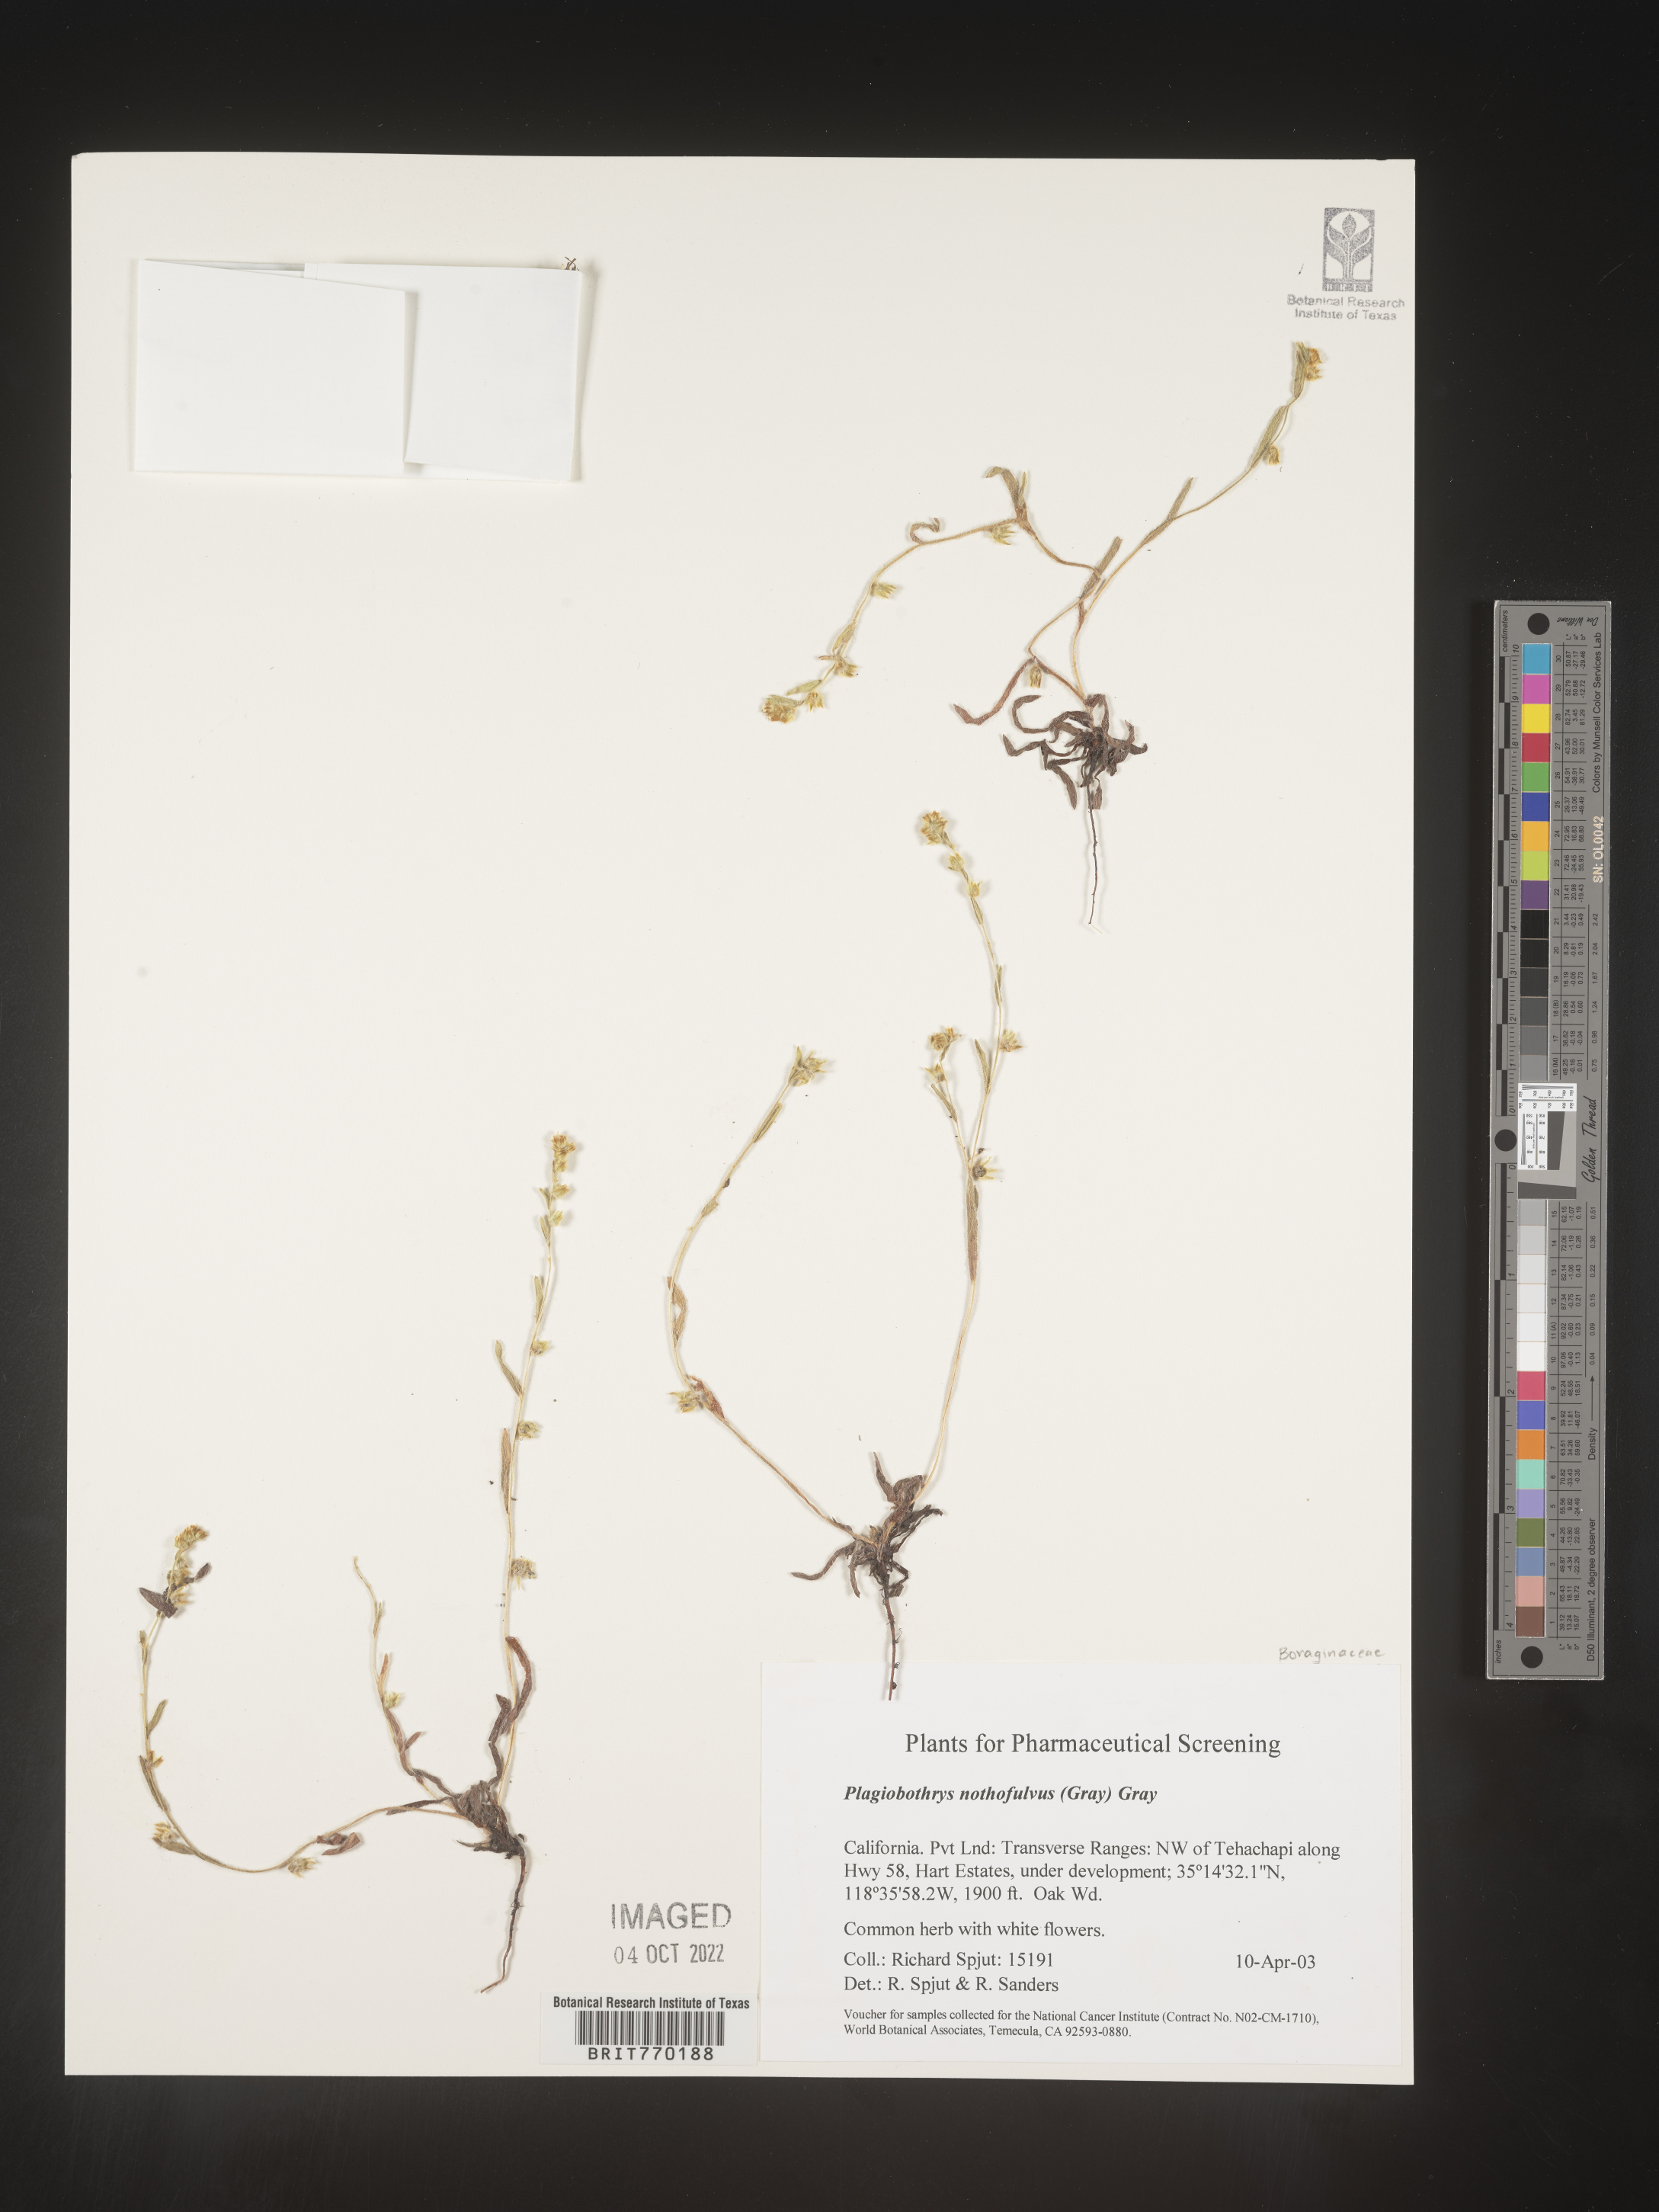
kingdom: Plantae
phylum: Tracheophyta
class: Magnoliopsida
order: Boraginales
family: Boraginaceae
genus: Plagiobothrys
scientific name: Plagiobothrys
